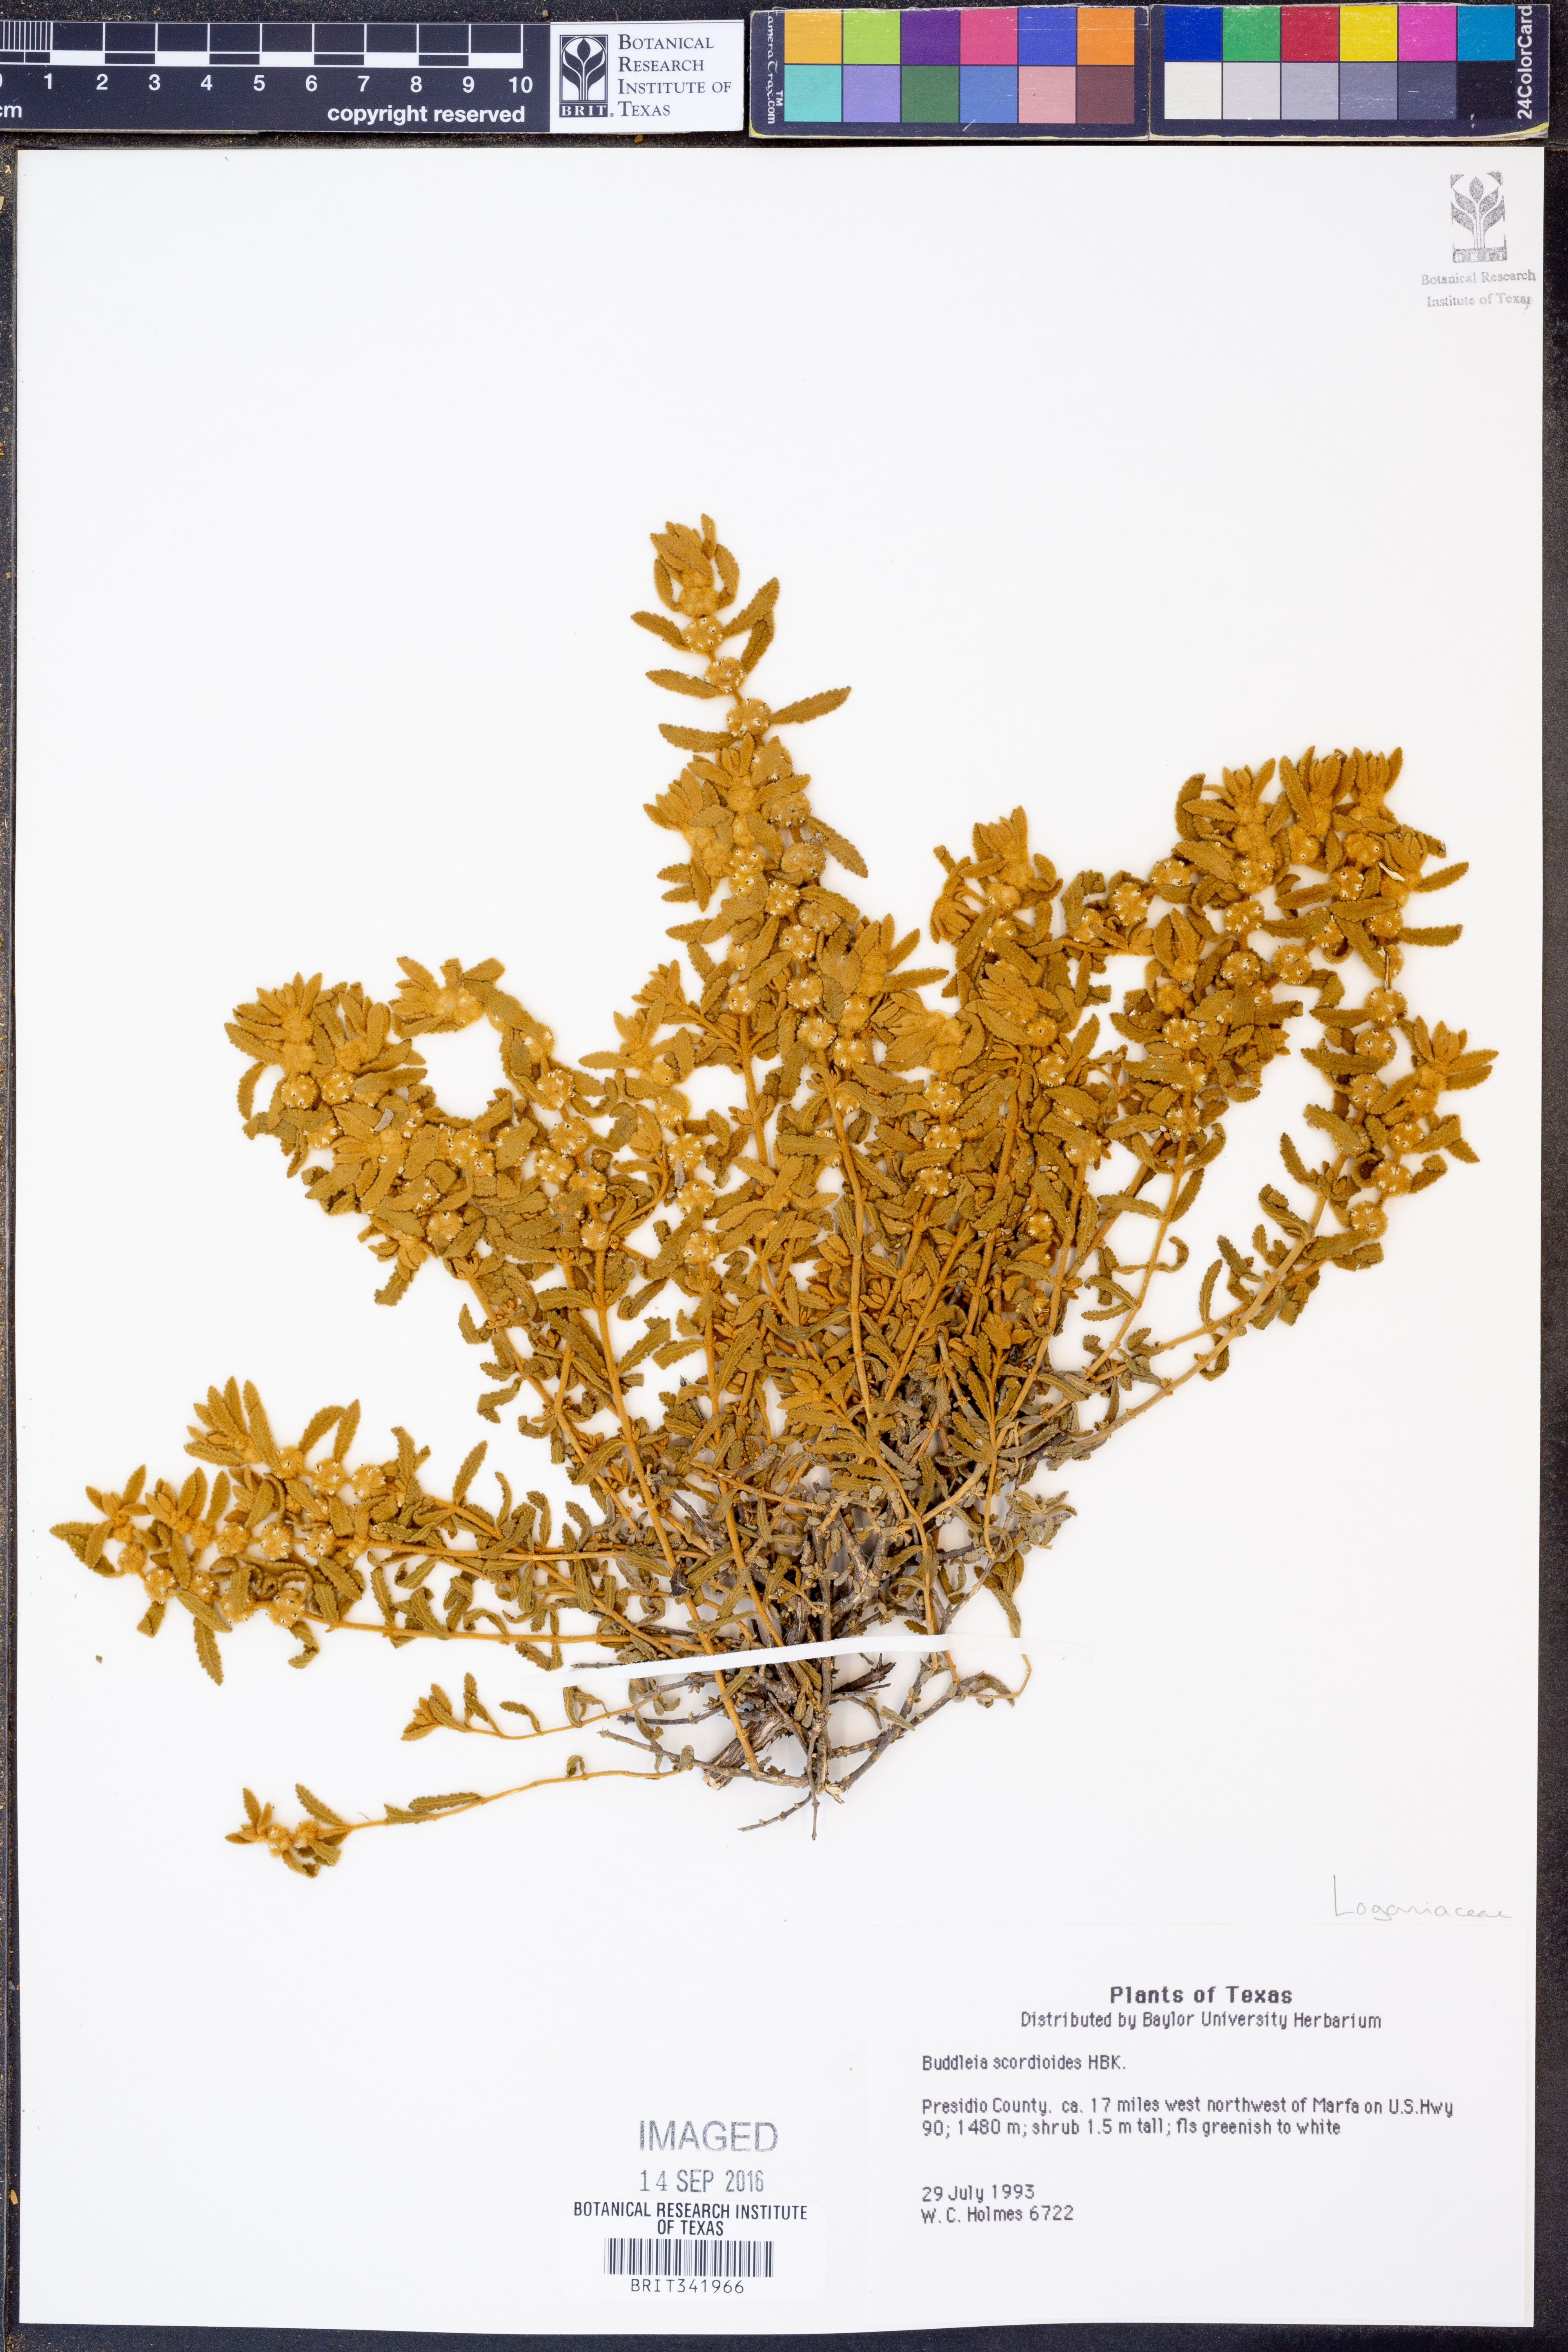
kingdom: Plantae
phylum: Tracheophyta
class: Magnoliopsida
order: Lamiales
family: Scrophulariaceae
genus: Buddleja
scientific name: Buddleja scordioides
